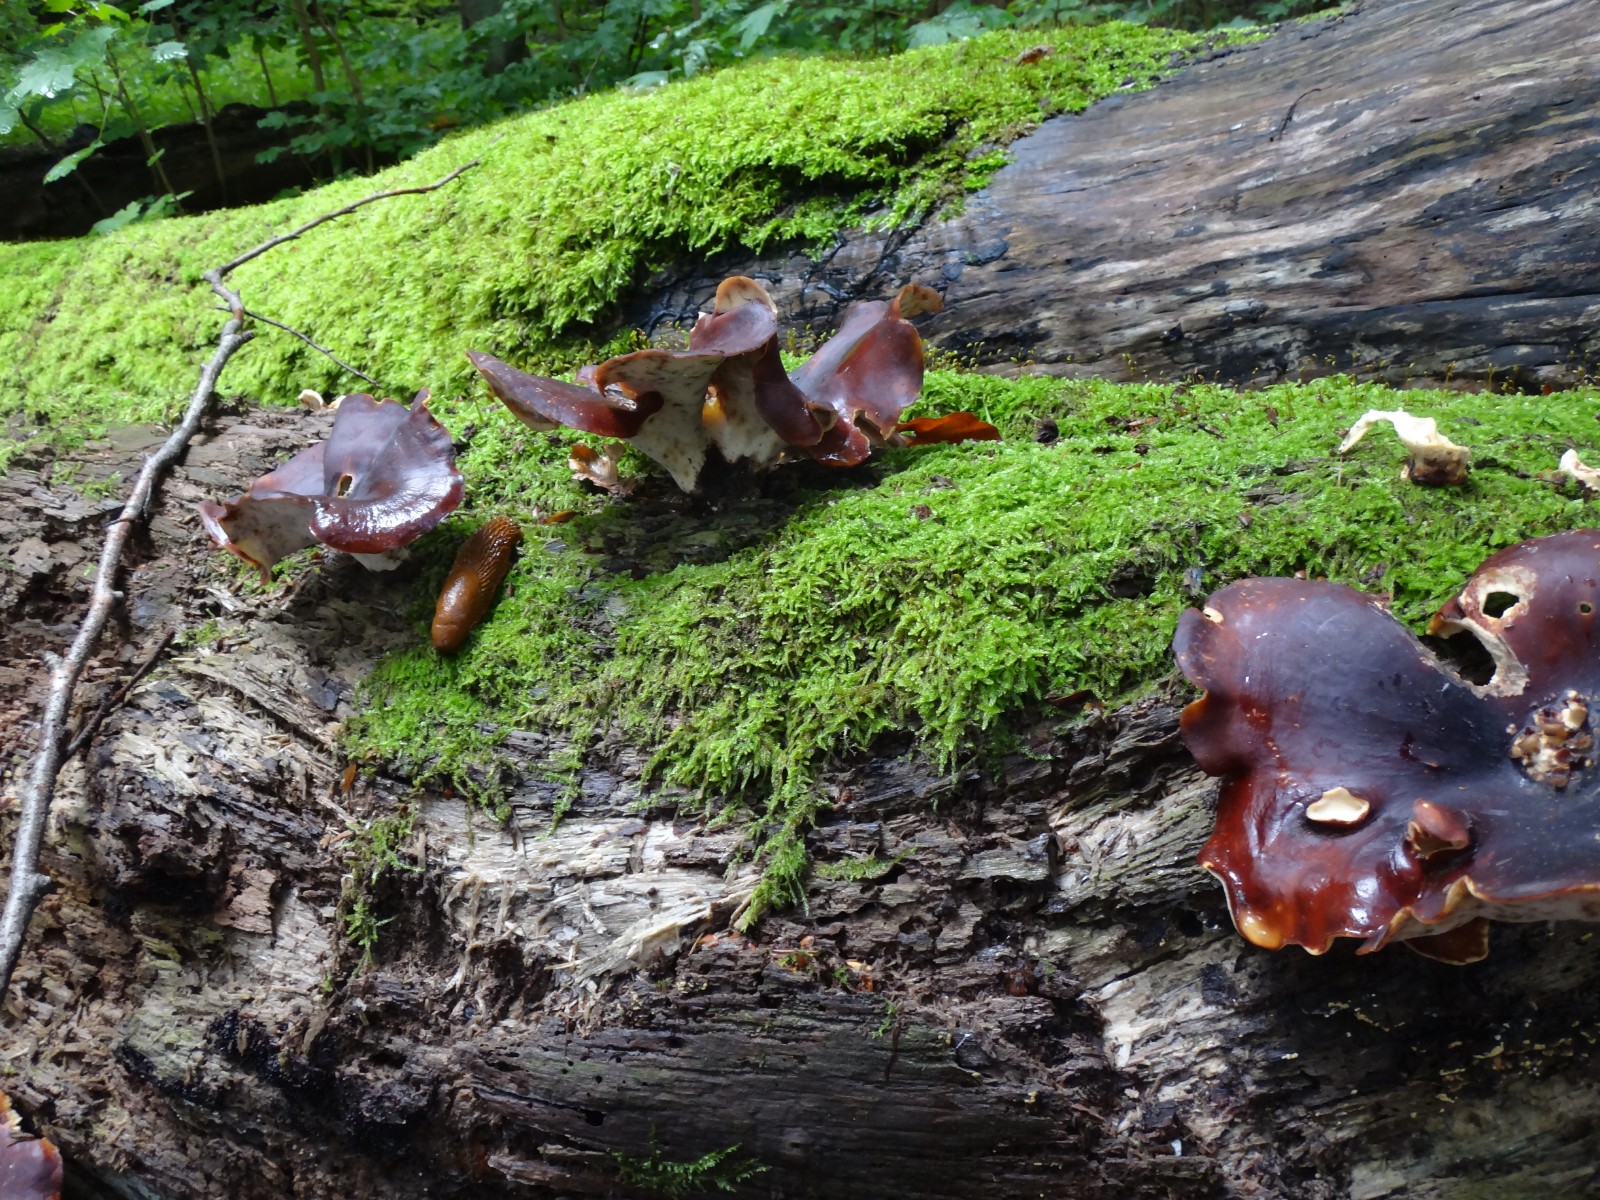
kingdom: Fungi
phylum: Basidiomycota
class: Agaricomycetes
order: Polyporales
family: Polyporaceae
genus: Picipes
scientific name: Picipes badius
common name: kastaniebrun stilkporesvamp
